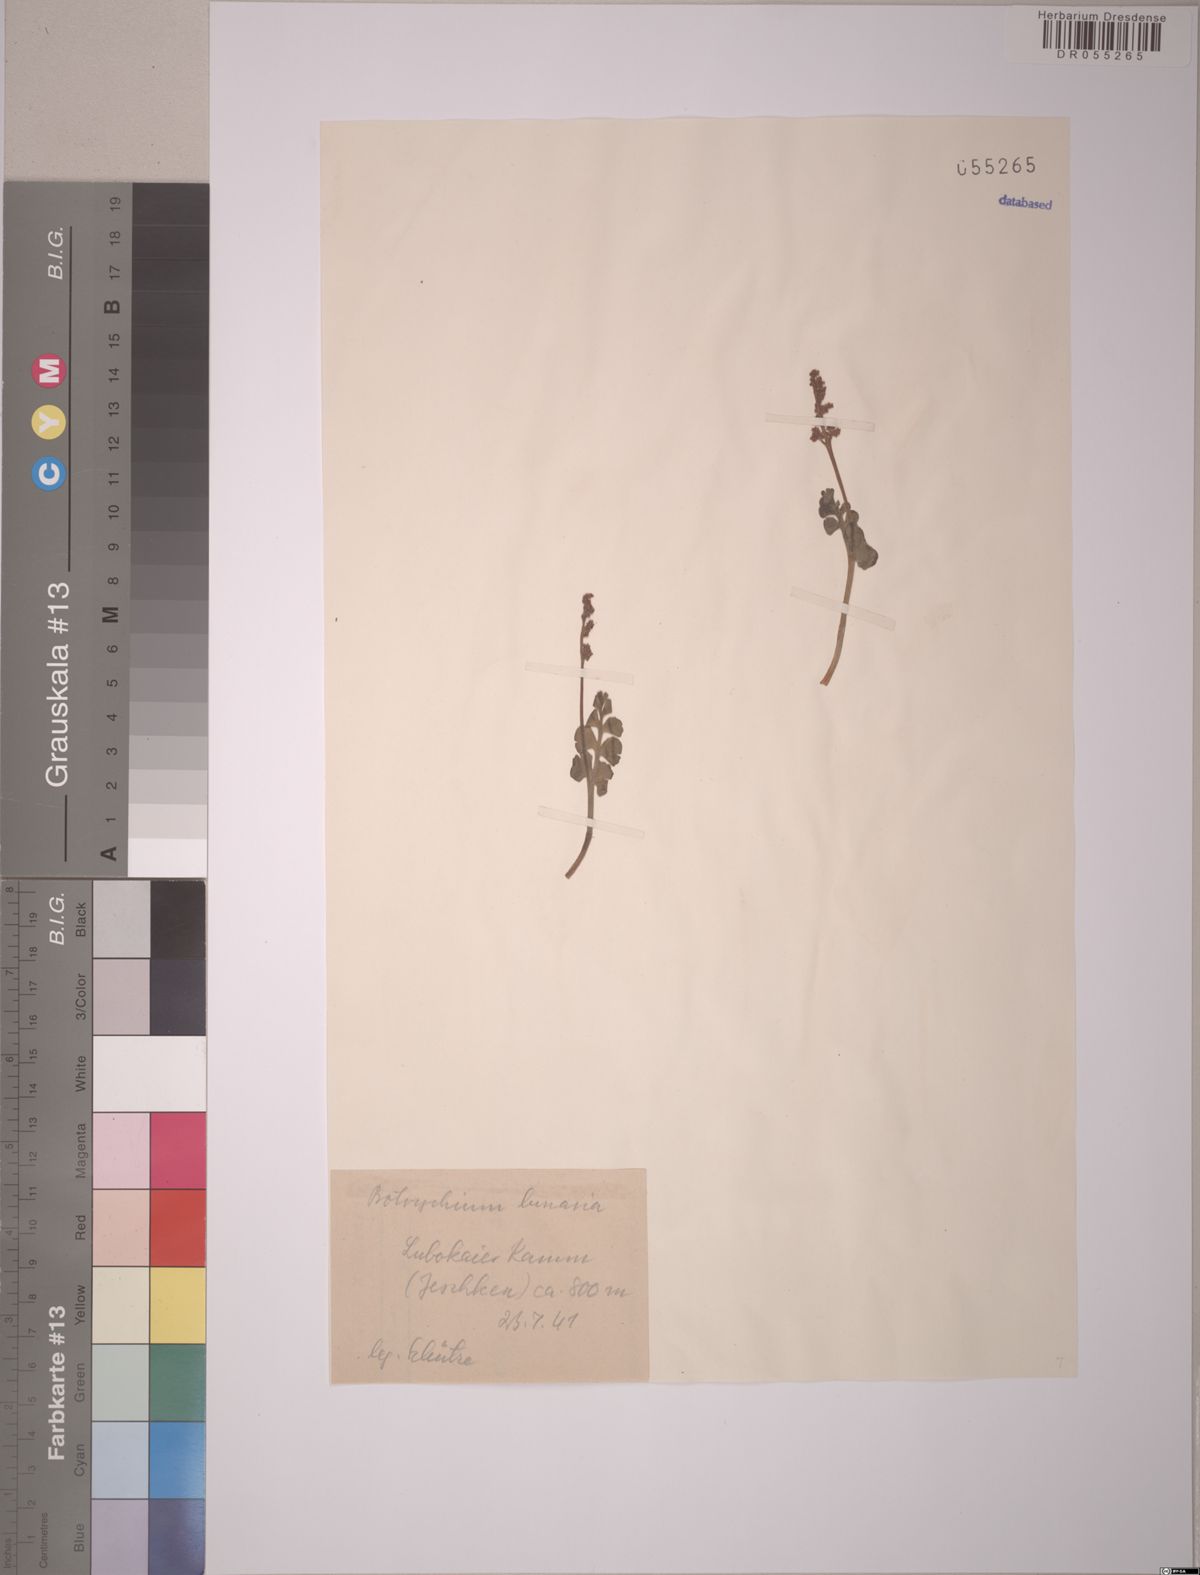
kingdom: Plantae
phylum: Tracheophyta
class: Polypodiopsida
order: Ophioglossales
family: Ophioglossaceae
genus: Botrychium
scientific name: Botrychium lunaria
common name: Moonwort
